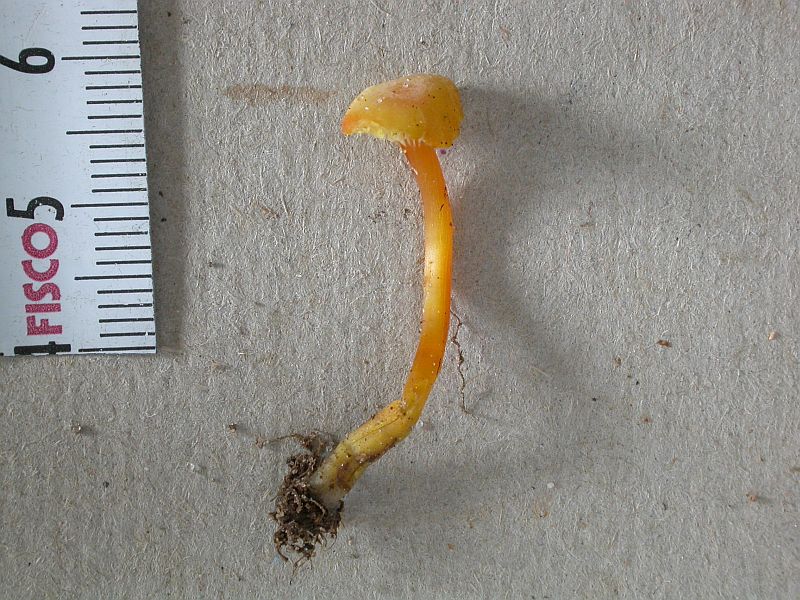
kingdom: Fungi
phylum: Basidiomycota
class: Agaricomycetes
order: Agaricales
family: Hygrophoraceae
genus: Hygrocybe
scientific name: Hygrocybe cantharellus
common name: kantarel-vokshat
